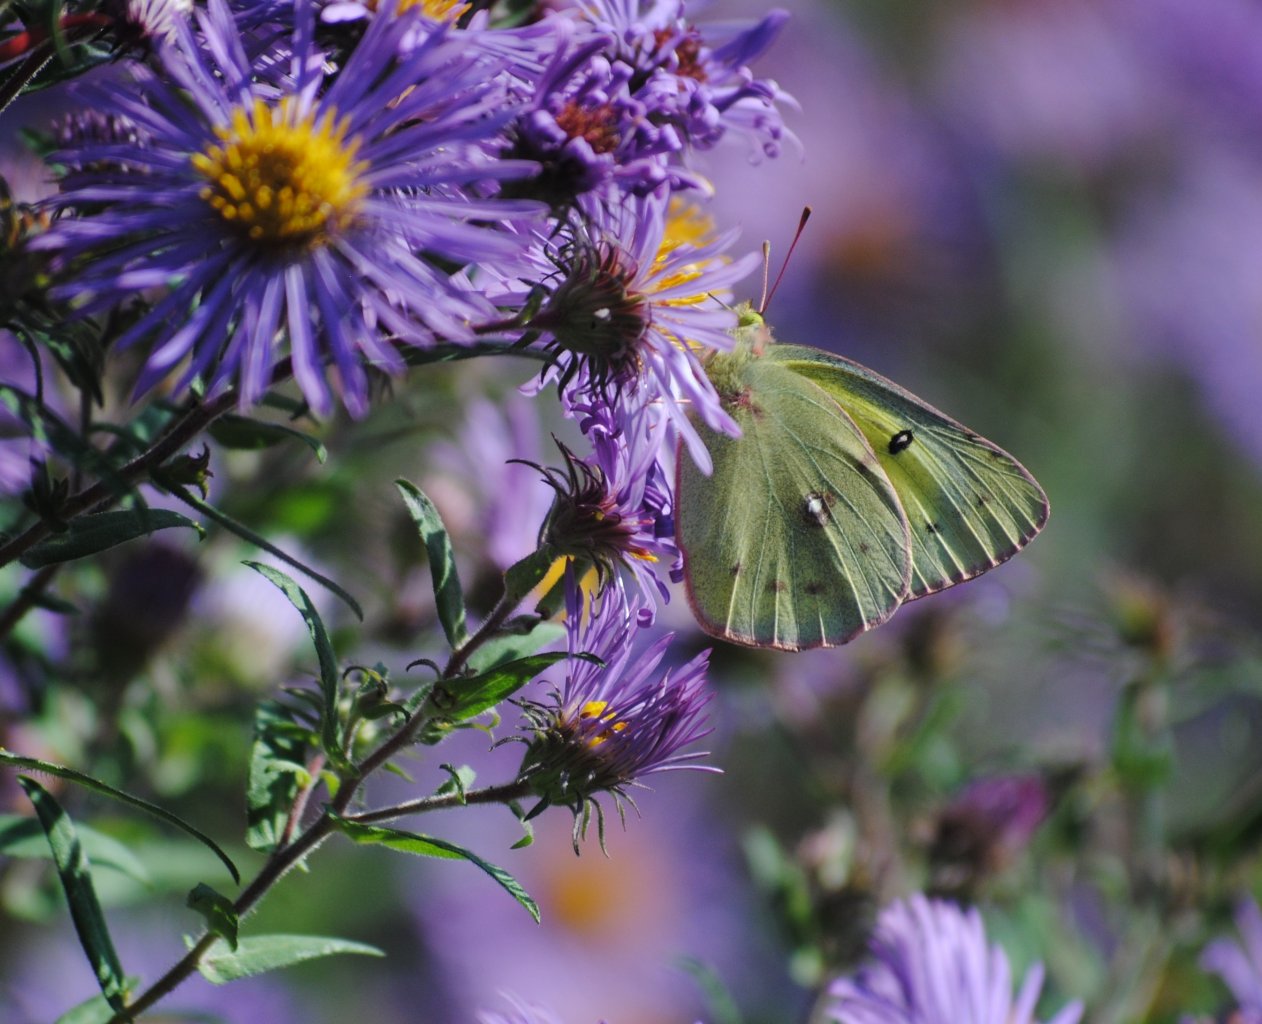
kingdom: Animalia
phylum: Arthropoda
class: Insecta
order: Lepidoptera
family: Pieridae
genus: Colias
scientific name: Colias philodice
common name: Clouded Sulphur
